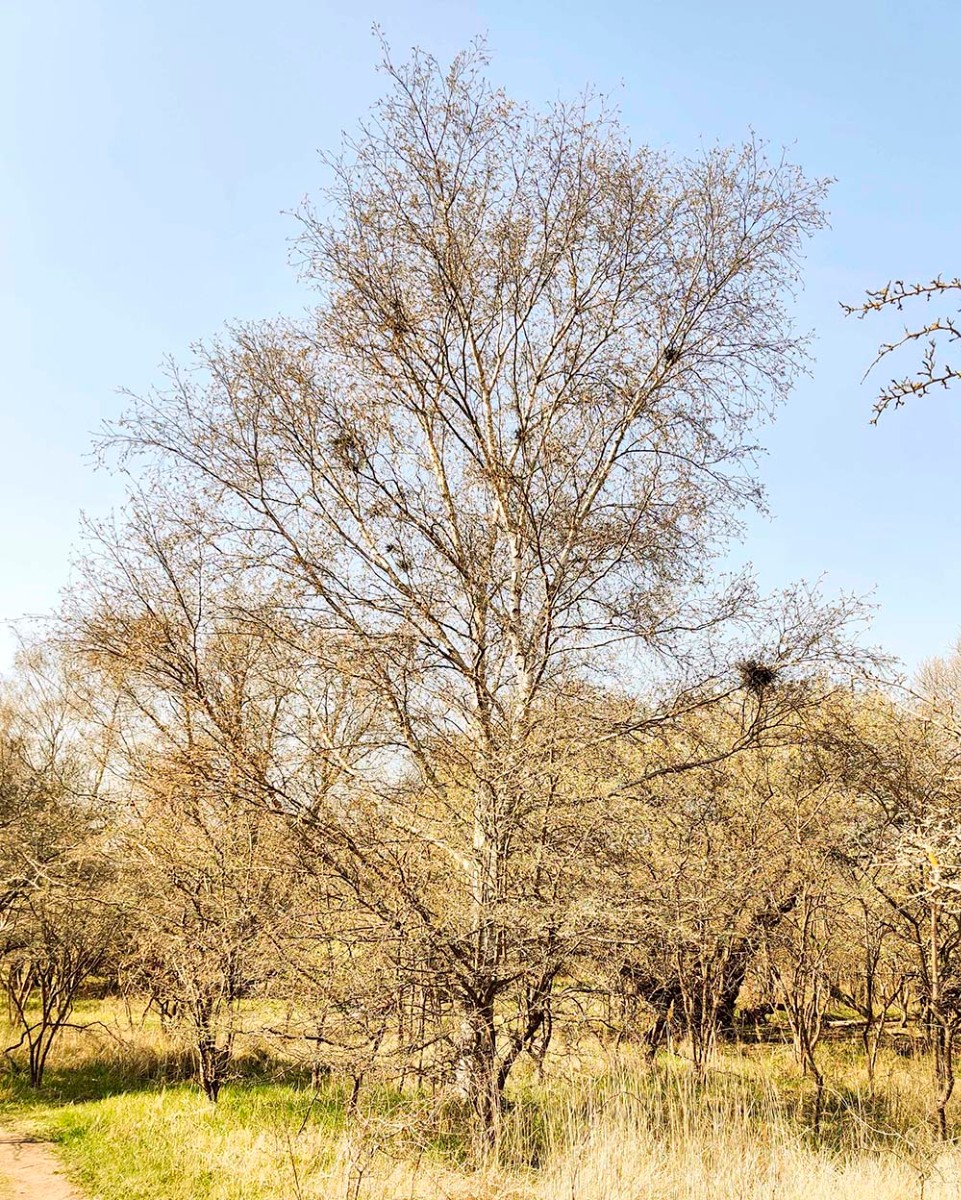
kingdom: Fungi
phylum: Ascomycota
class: Taphrinomycetes
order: Taphrinales
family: Taphrinaceae
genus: Taphrina
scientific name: Taphrina betulina
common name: hekse-sækdug
